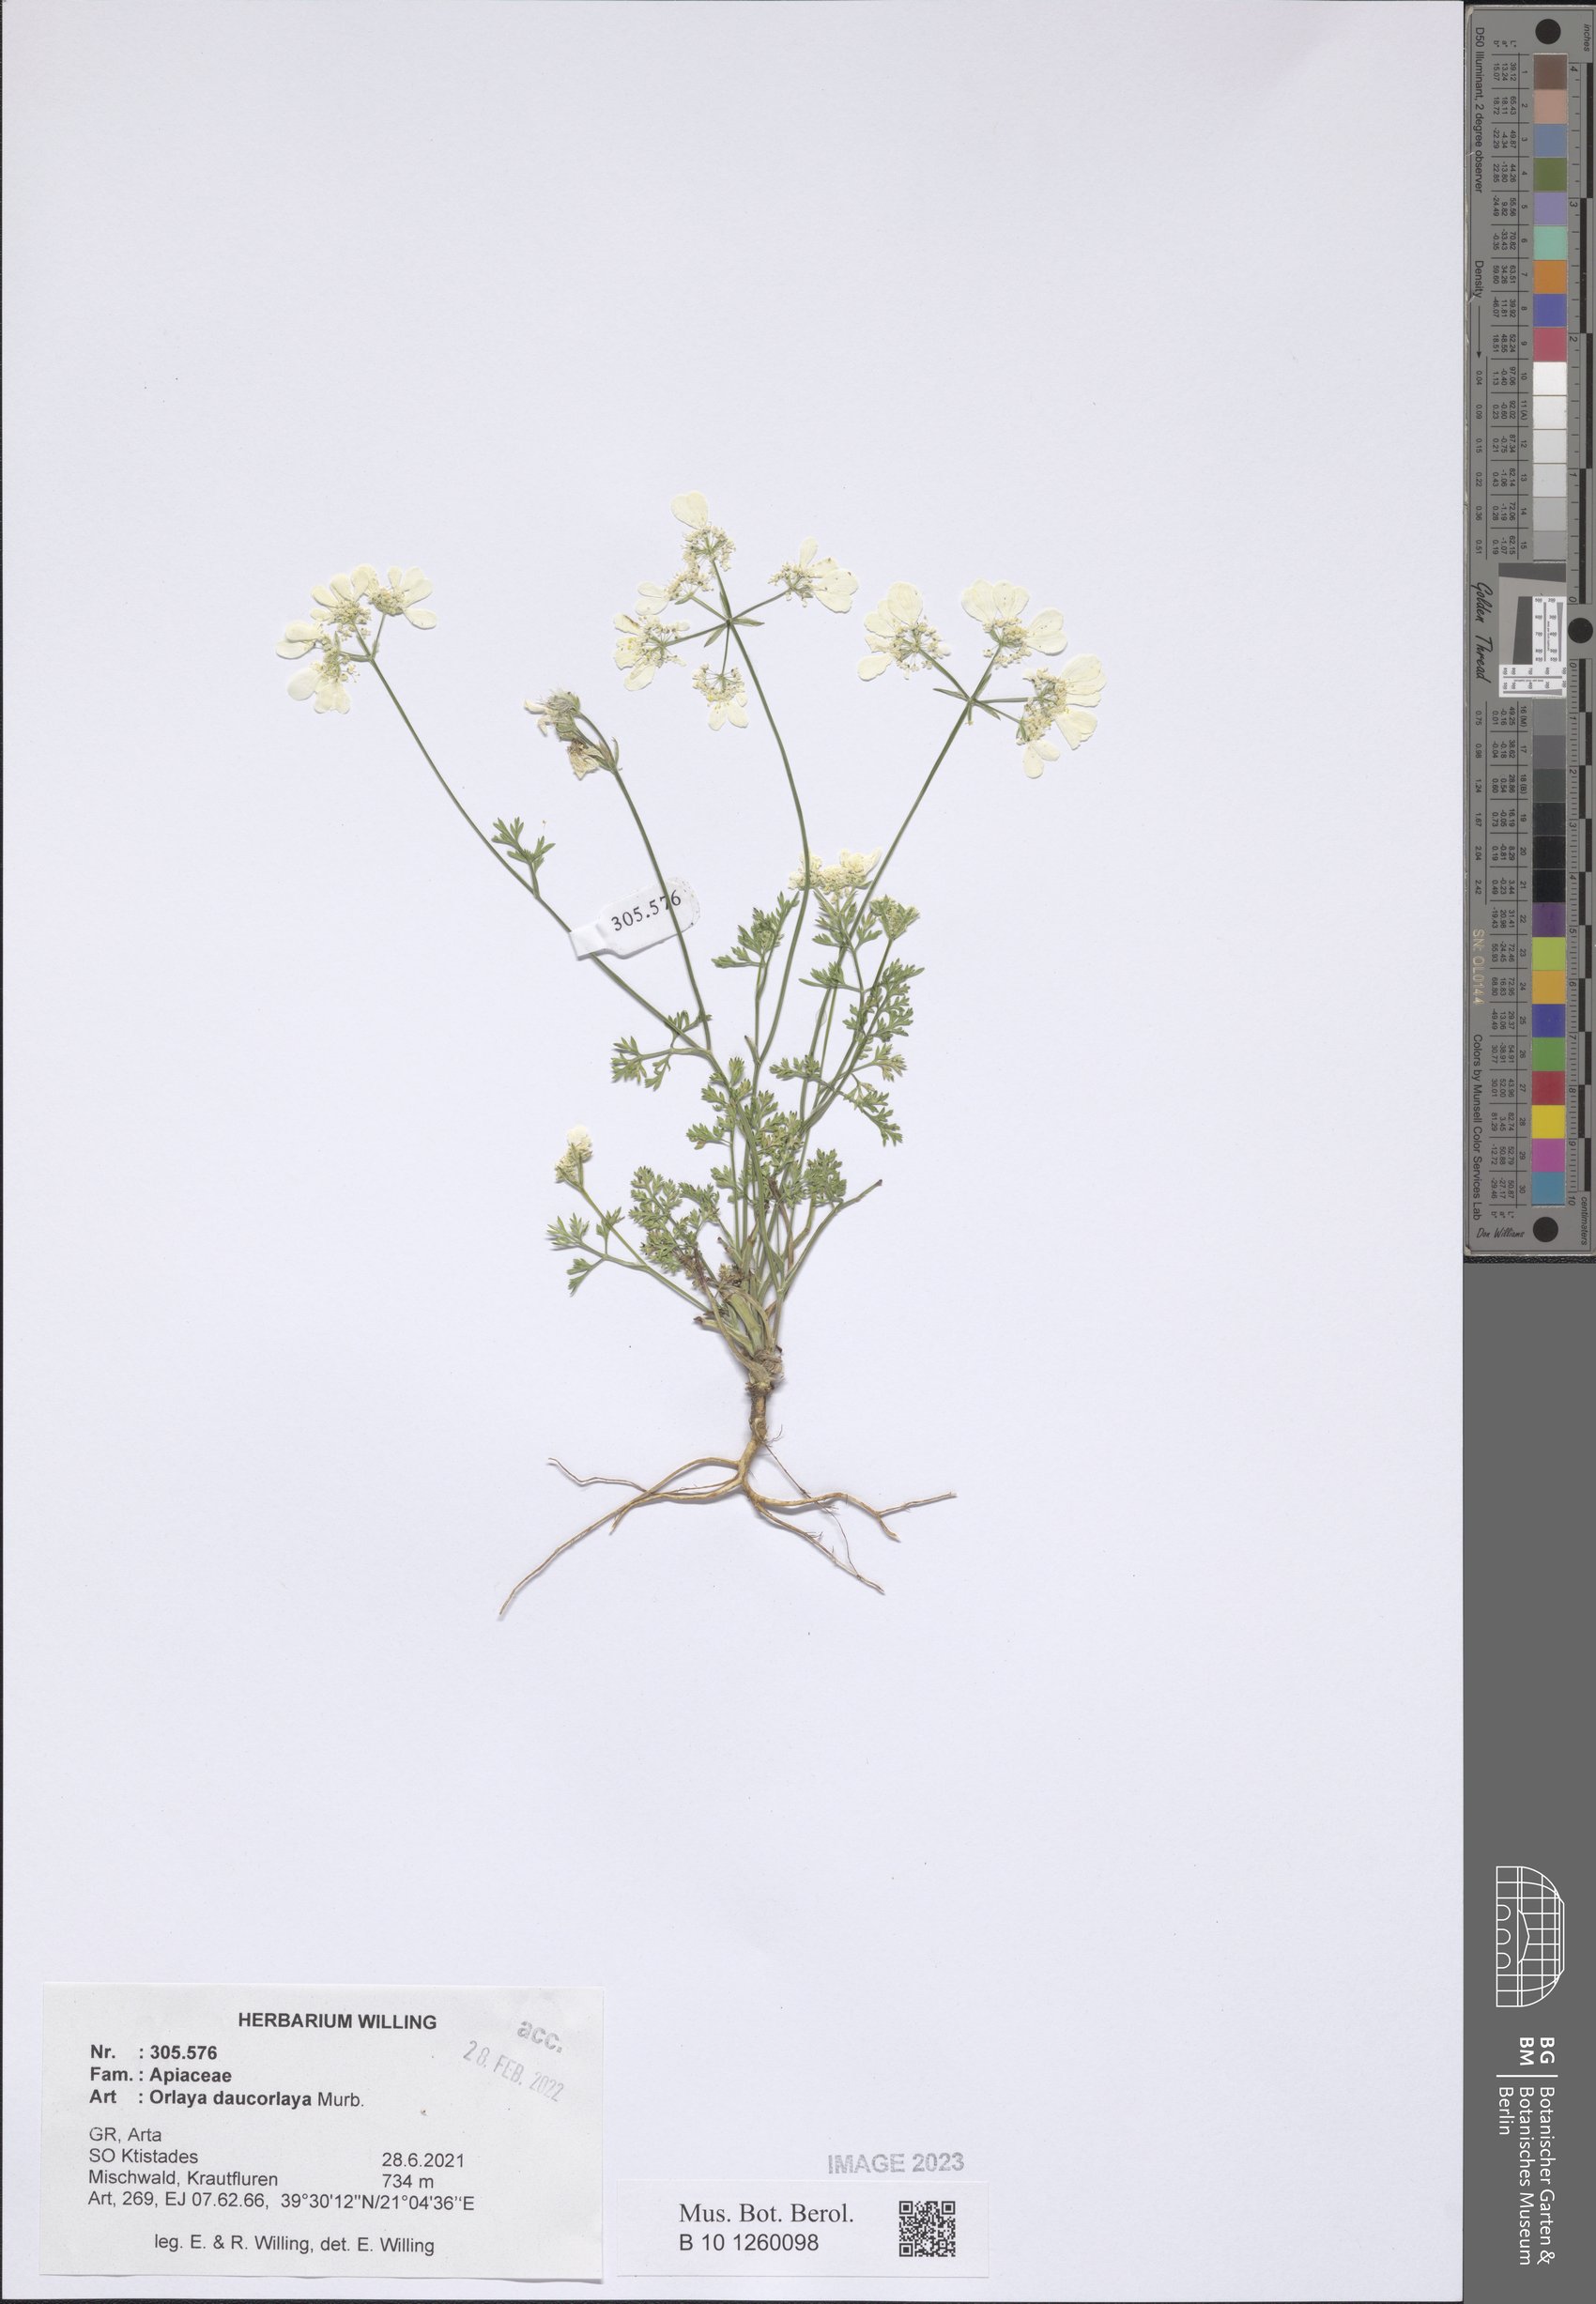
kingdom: Plantae
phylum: Tracheophyta
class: Magnoliopsida
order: Apiales
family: Apiaceae
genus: Orlaya
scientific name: Orlaya daucorlaya
